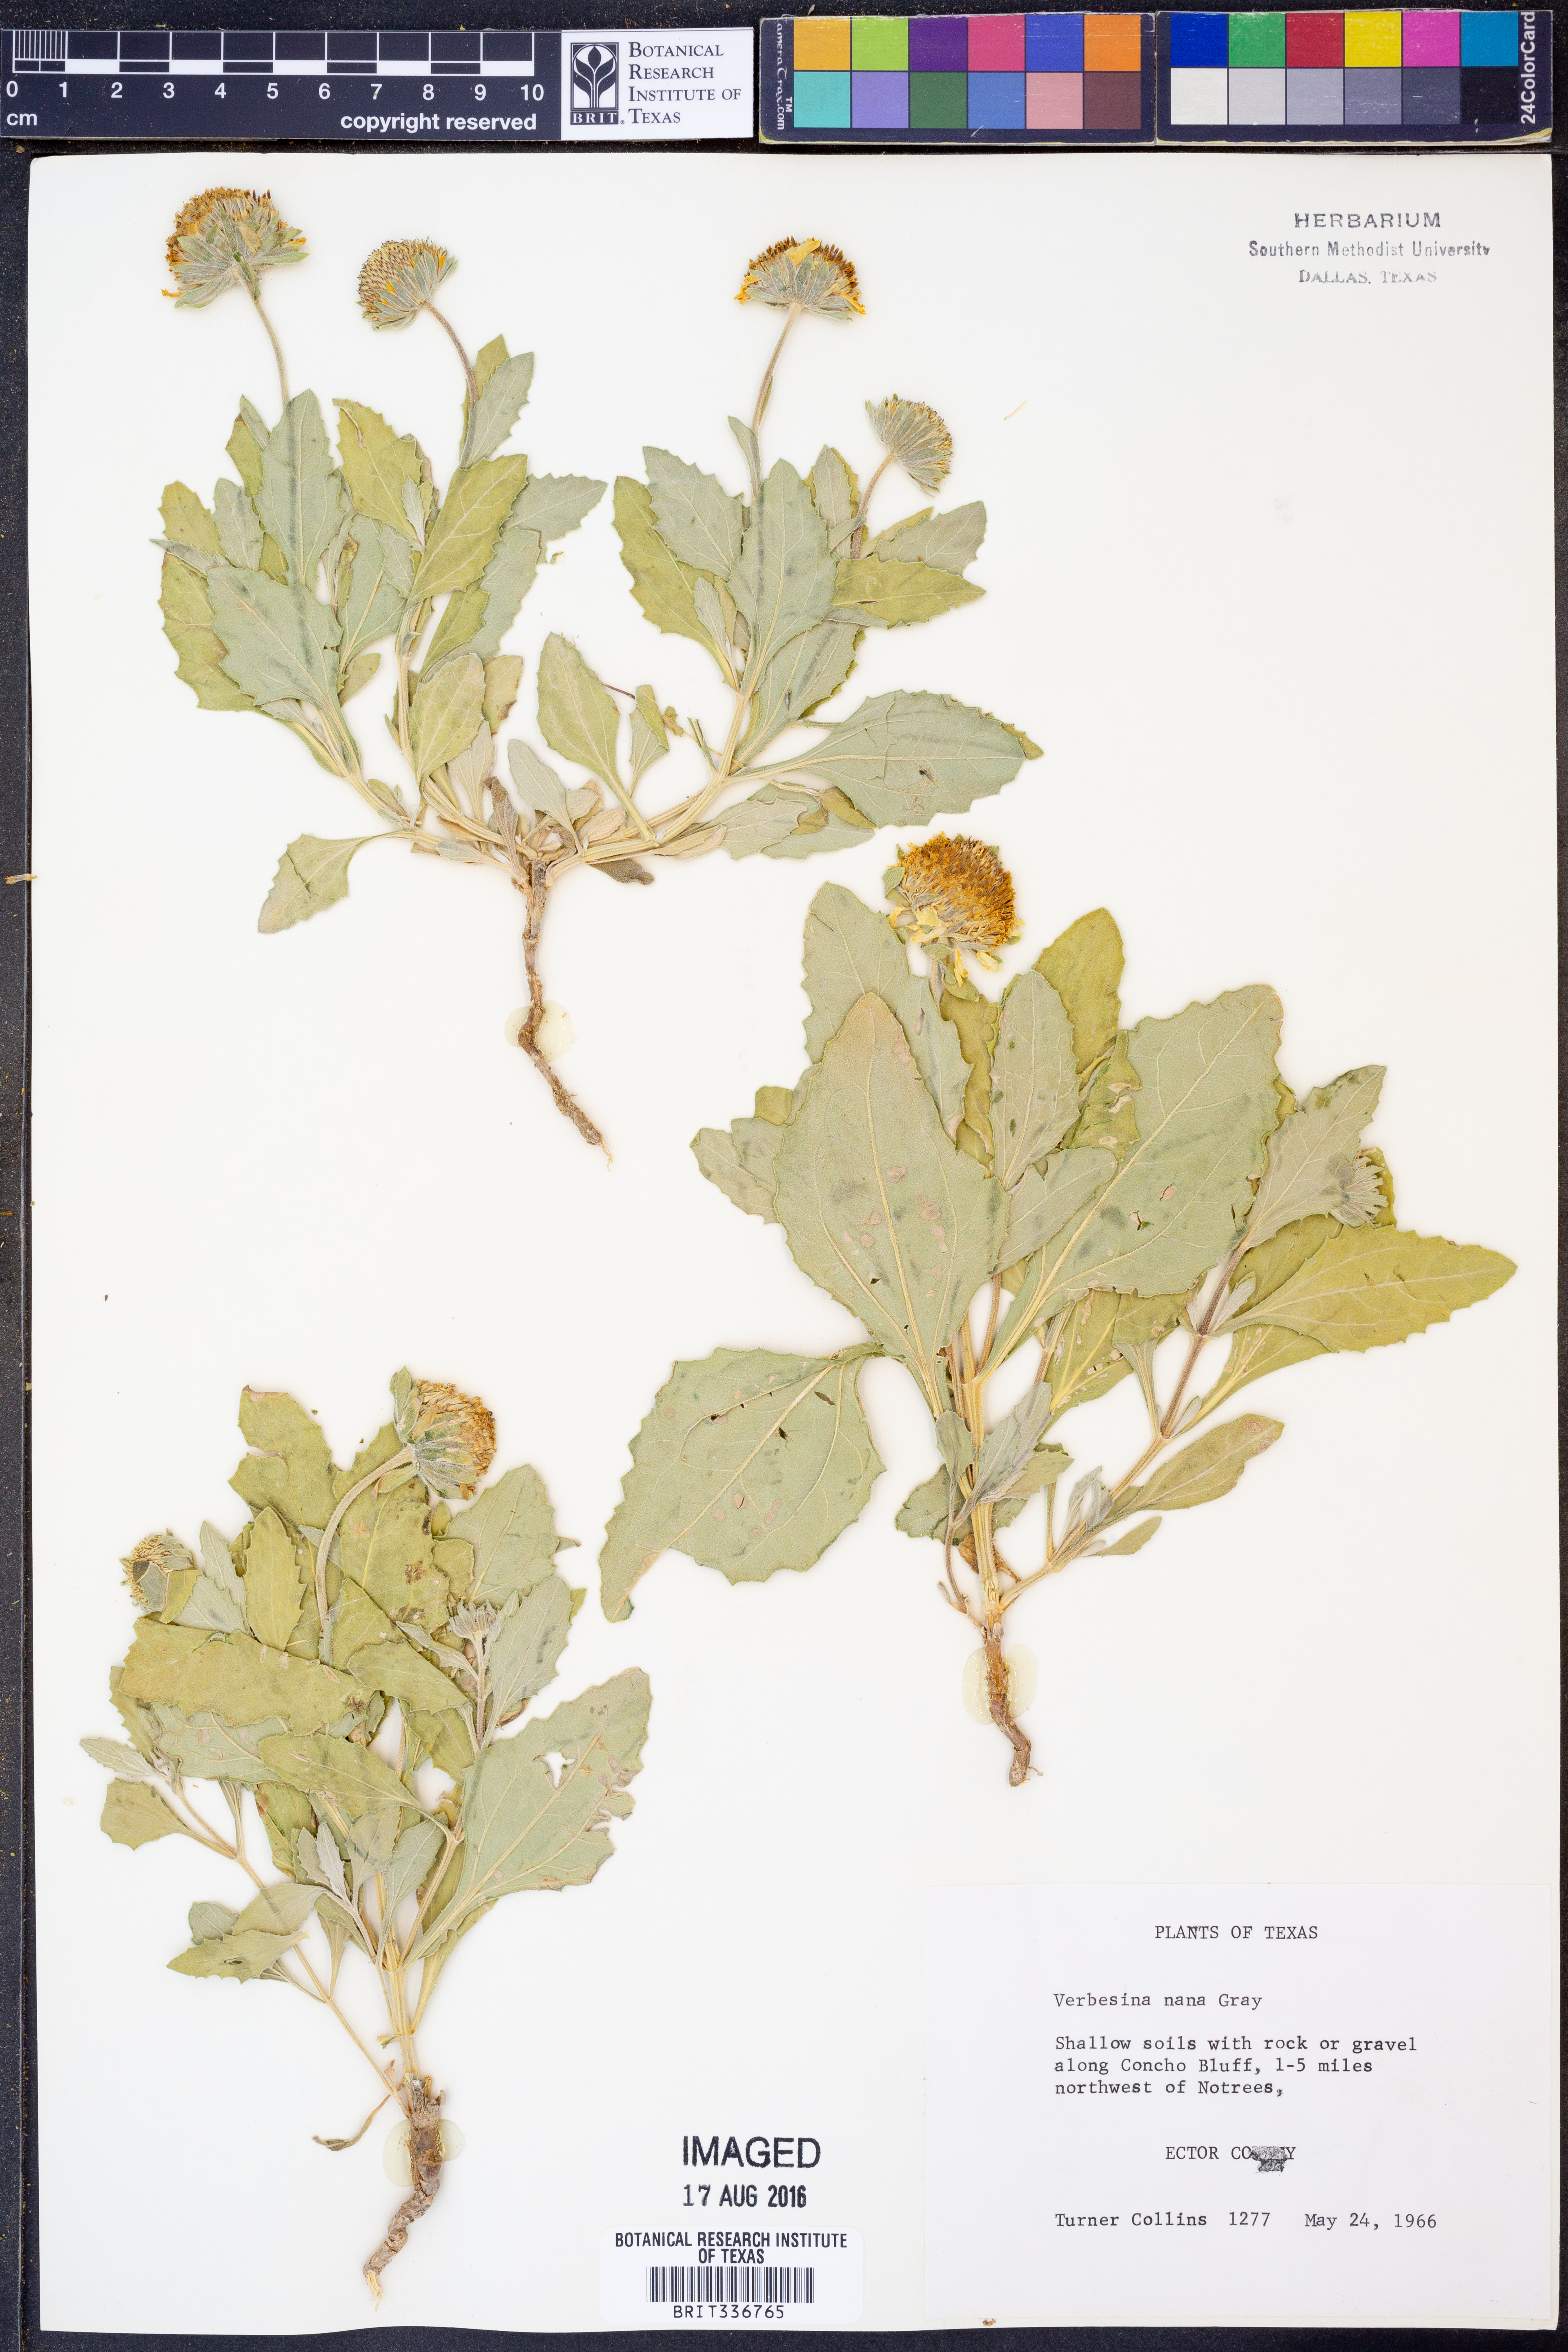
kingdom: Plantae
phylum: Tracheophyta
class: Magnoliopsida
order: Asterales
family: Asteraceae
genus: Verbesina
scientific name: Verbesina nana
